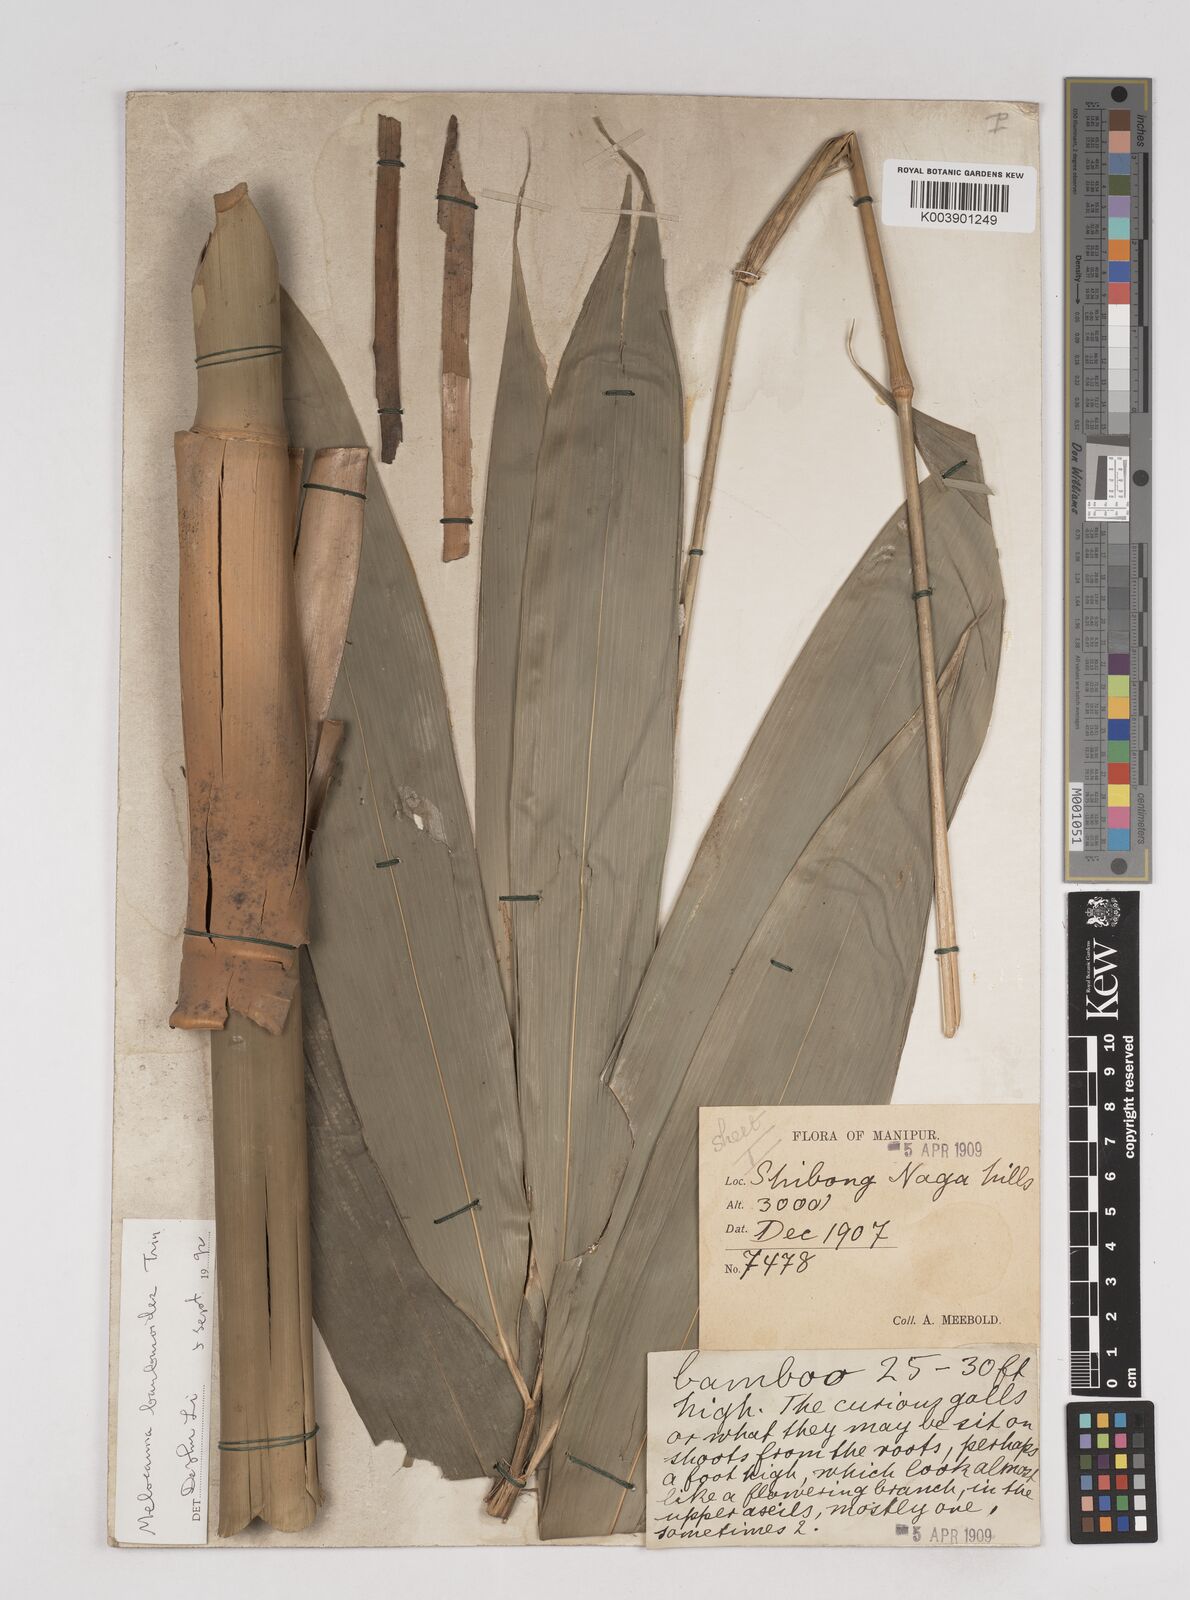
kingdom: Plantae
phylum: Tracheophyta
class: Liliopsida
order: Poales
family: Poaceae
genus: Melocanna
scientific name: Melocanna
